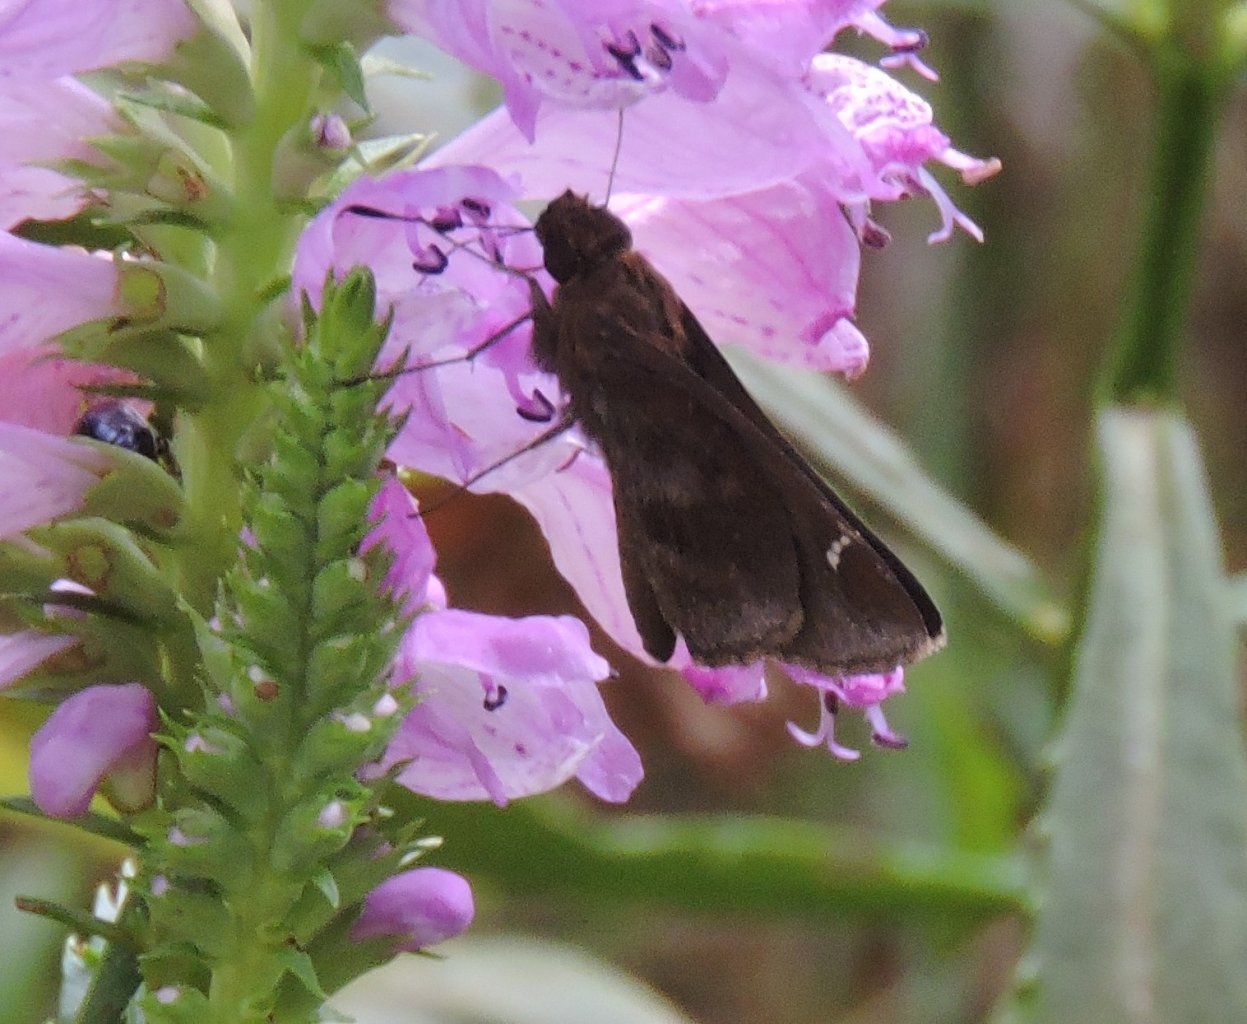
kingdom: Animalia
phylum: Arthropoda
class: Insecta
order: Lepidoptera
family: Hesperiidae
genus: Lerema
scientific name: Lerema accius
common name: Clouded Skipper
